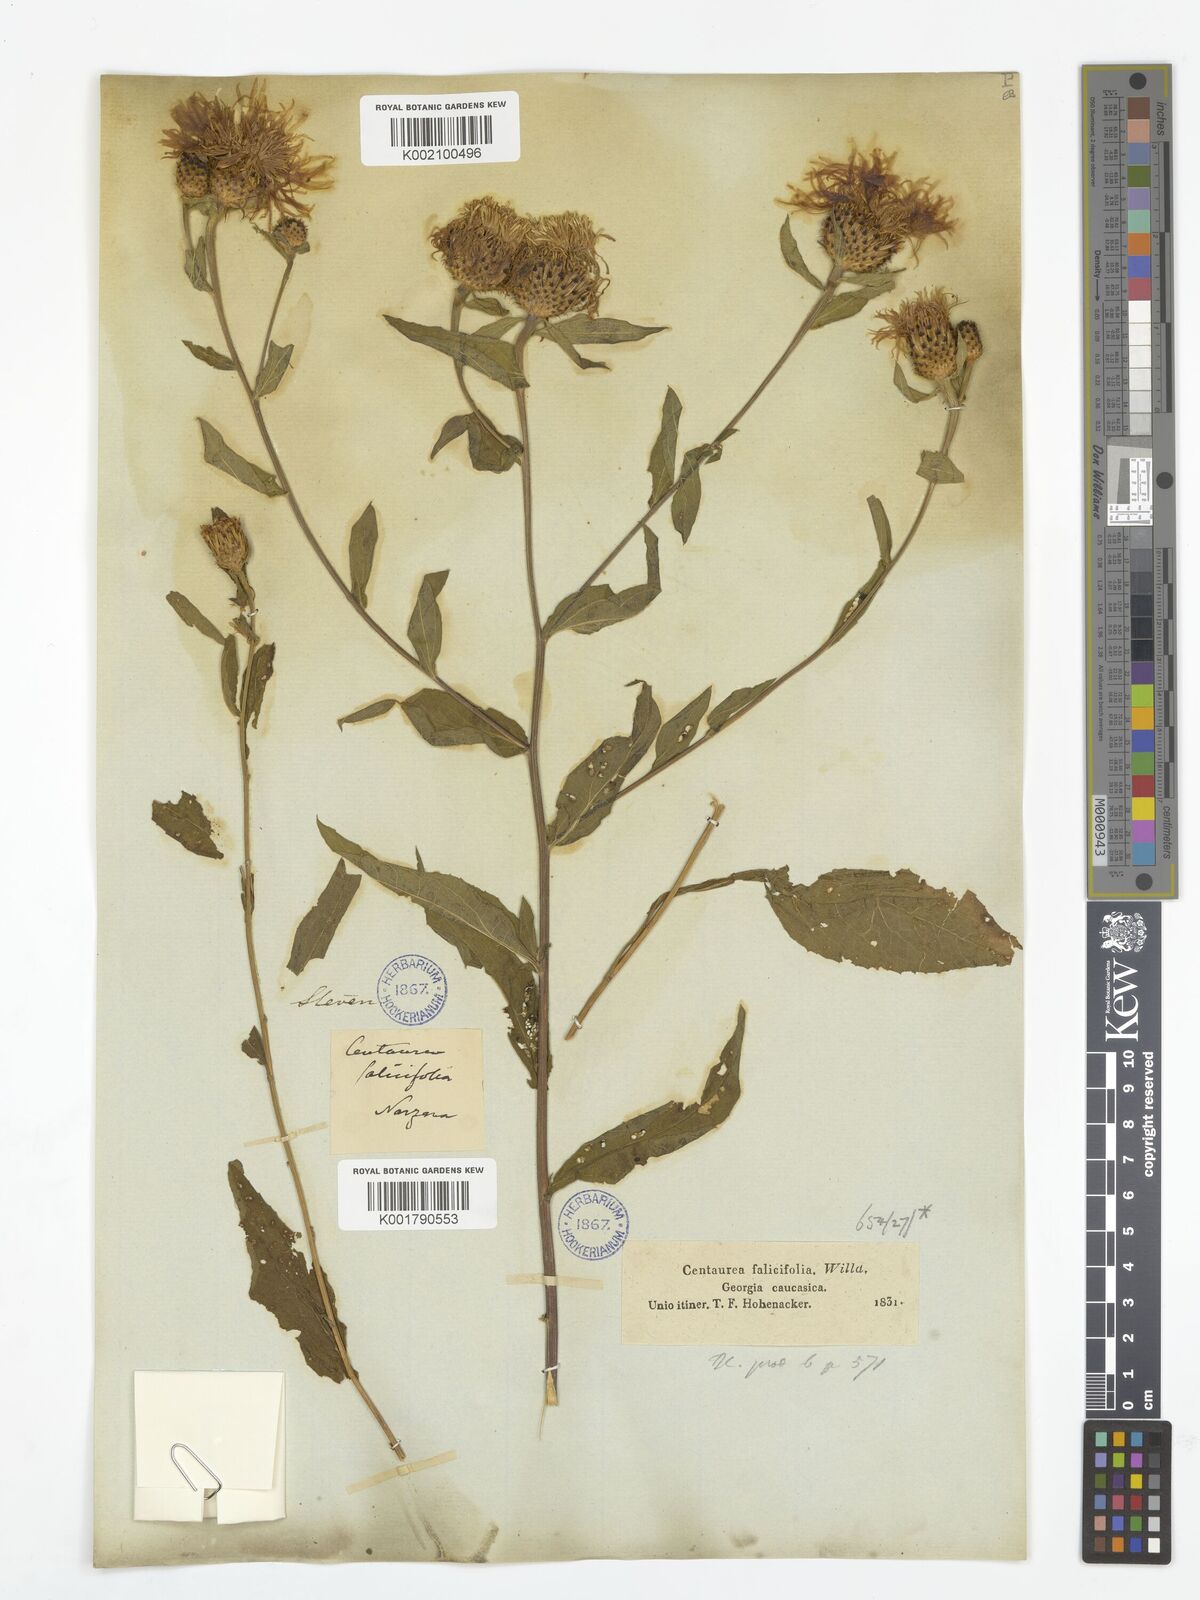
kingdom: Plantae
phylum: Tracheophyta
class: Magnoliopsida
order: Asterales
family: Asteraceae
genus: Centaurea
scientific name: Centaurea phrygia
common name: Wig knapweed
